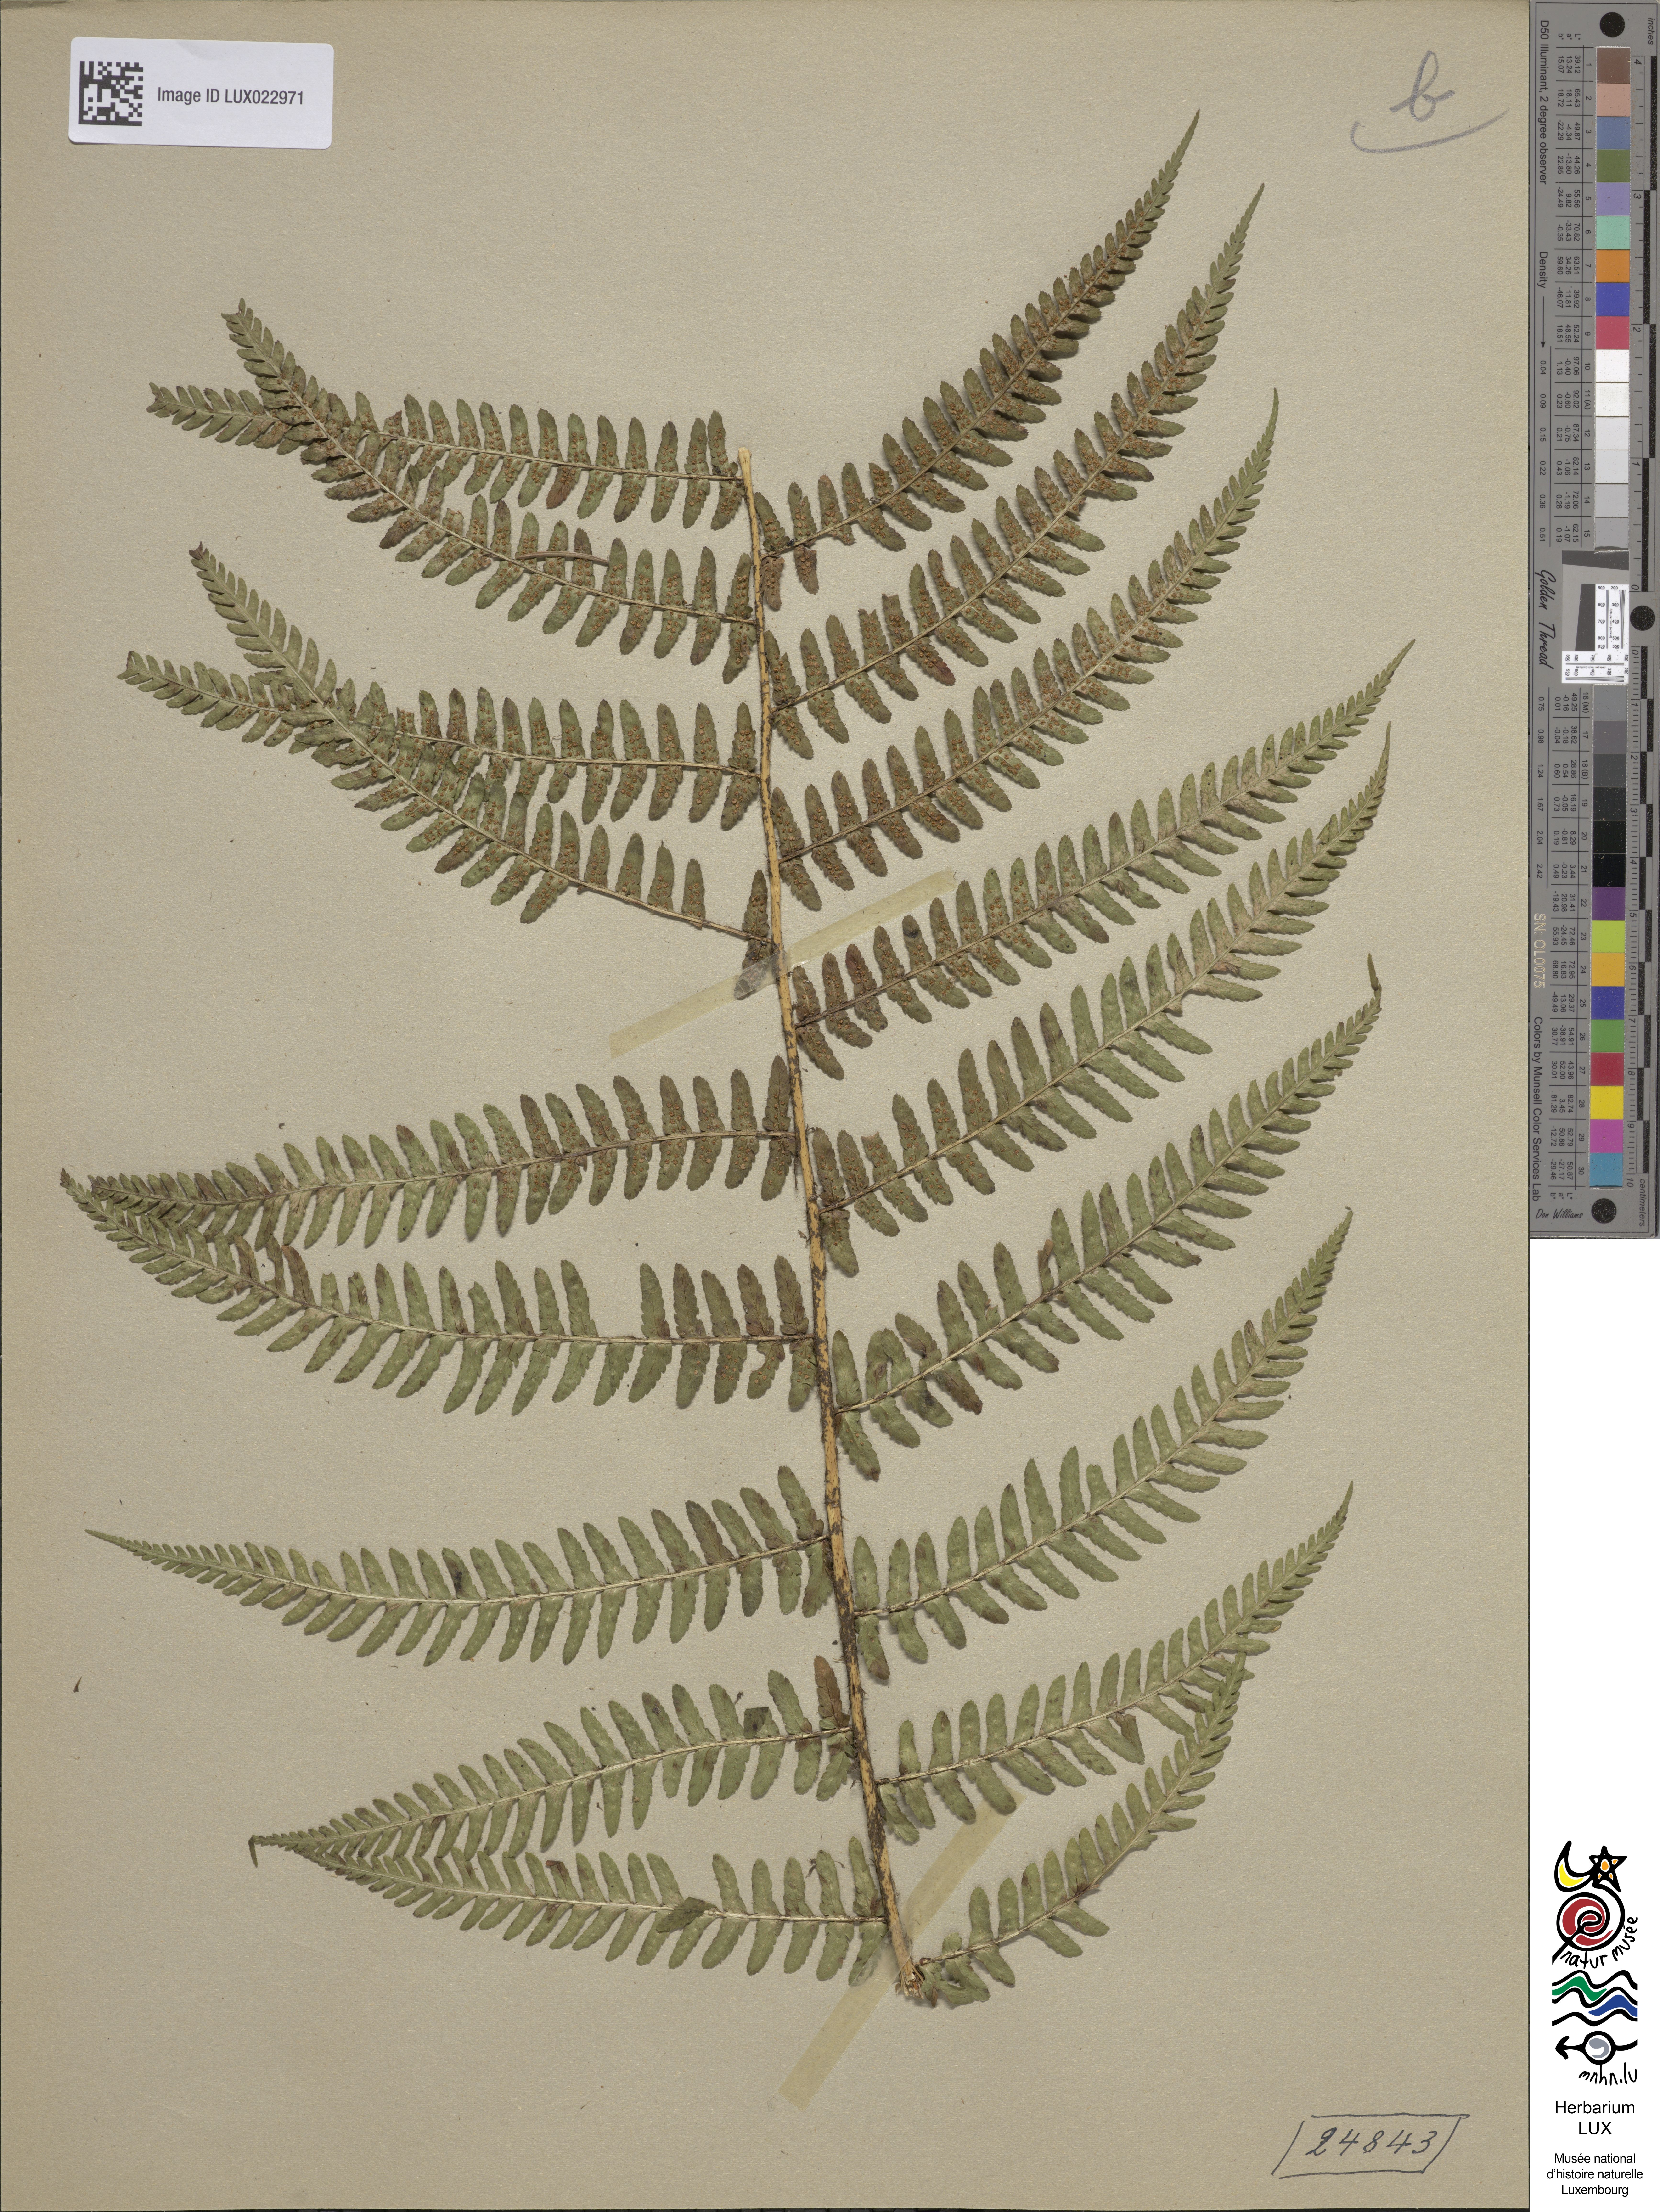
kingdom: Plantae
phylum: Tracheophyta
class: Polypodiopsida
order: Polypodiales
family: Dryopteridaceae
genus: Dryopteris
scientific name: Dryopteris pentheri
